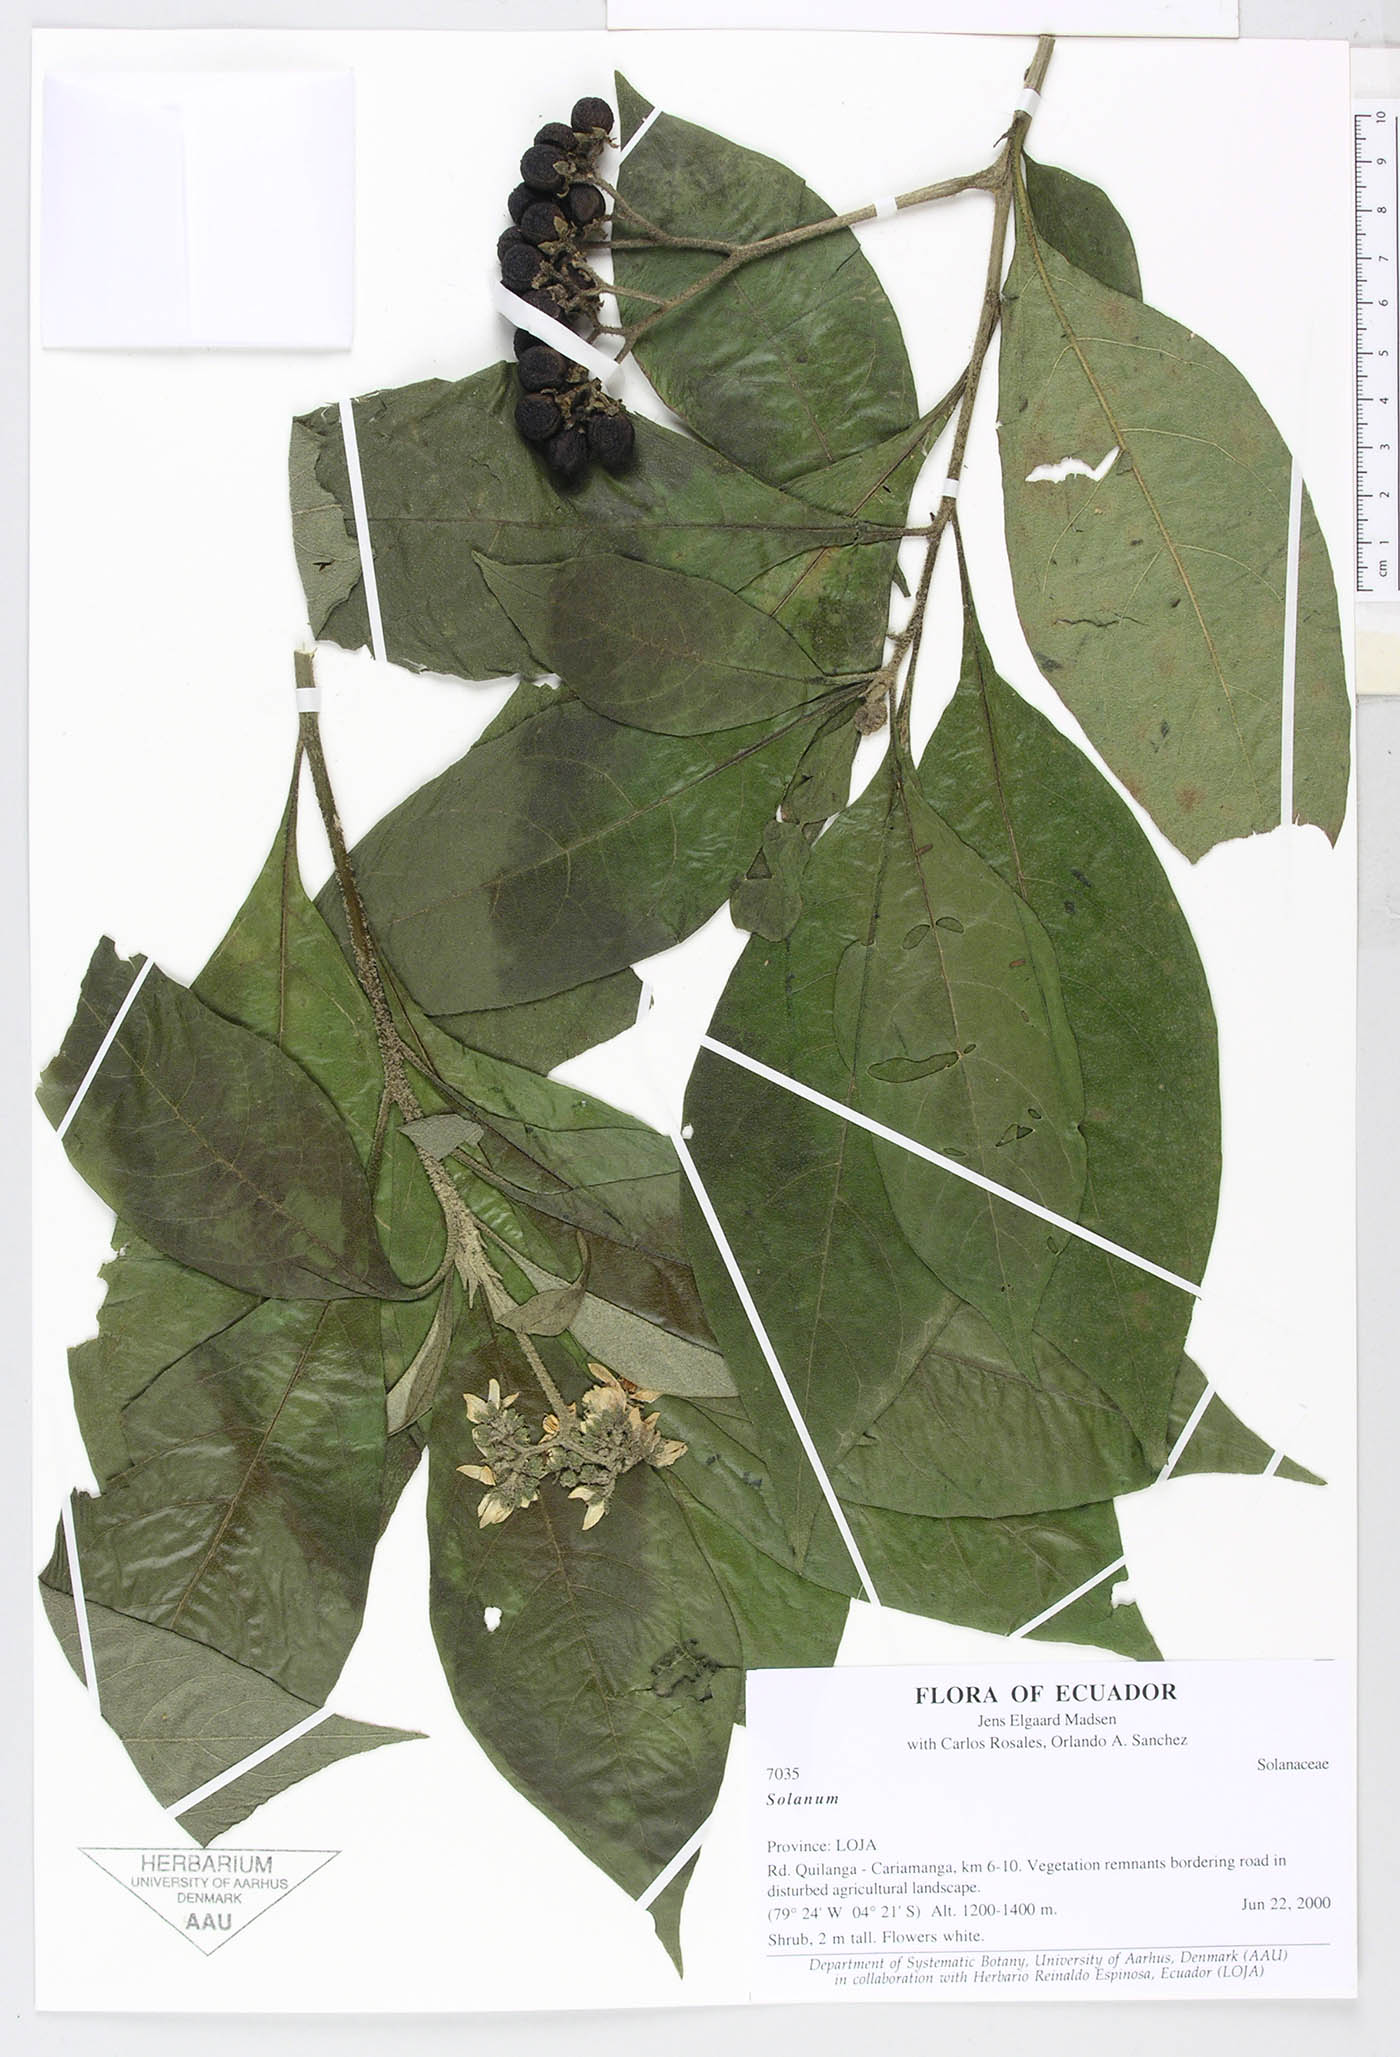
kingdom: Plantae
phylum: Tracheophyta
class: Magnoliopsida
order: Solanales
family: Solanaceae
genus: Solanum
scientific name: Solanum umbellatum
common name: Nightshade
